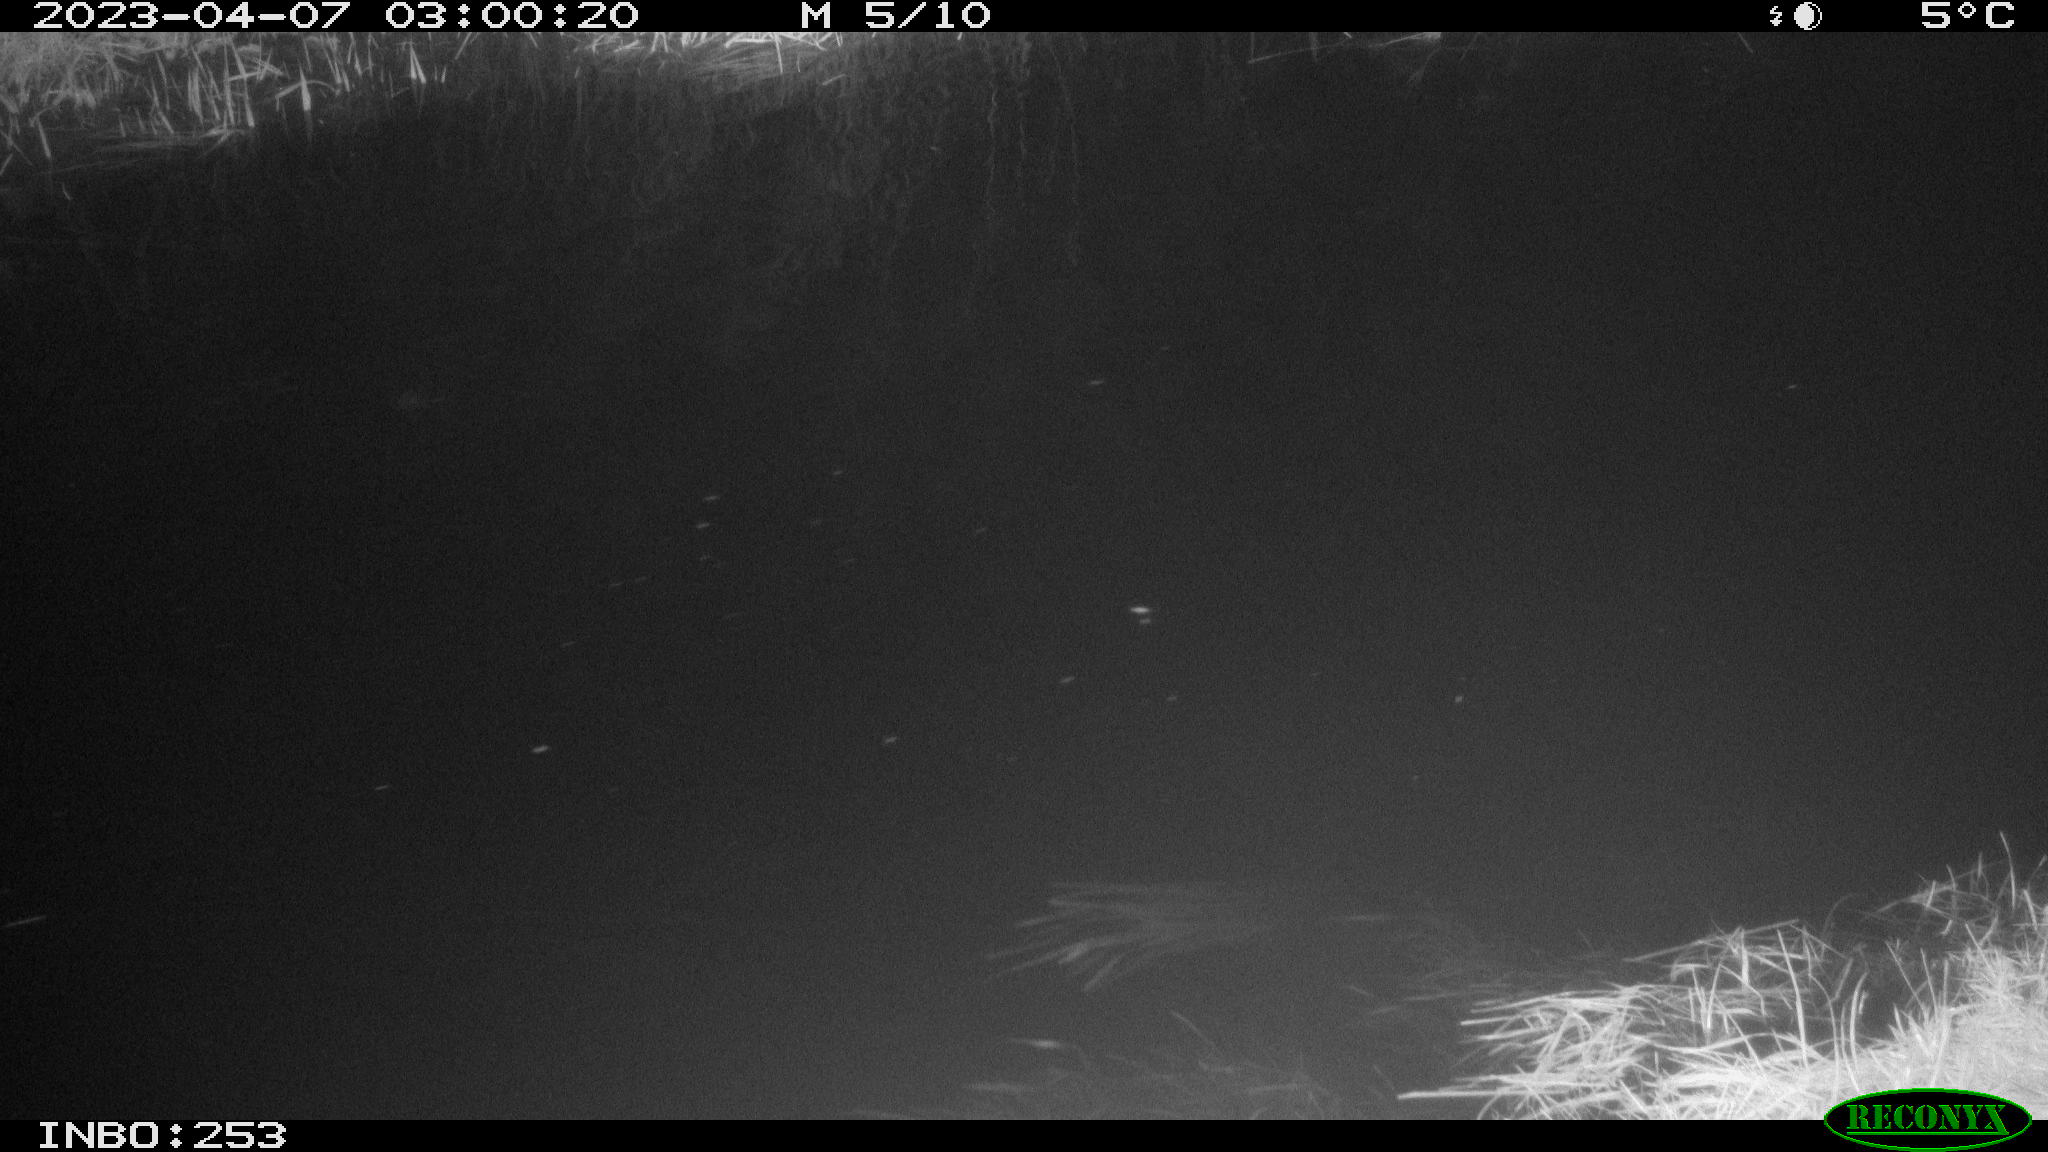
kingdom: Animalia
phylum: Chordata
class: Aves
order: Anseriformes
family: Anatidae
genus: Anas
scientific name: Anas
